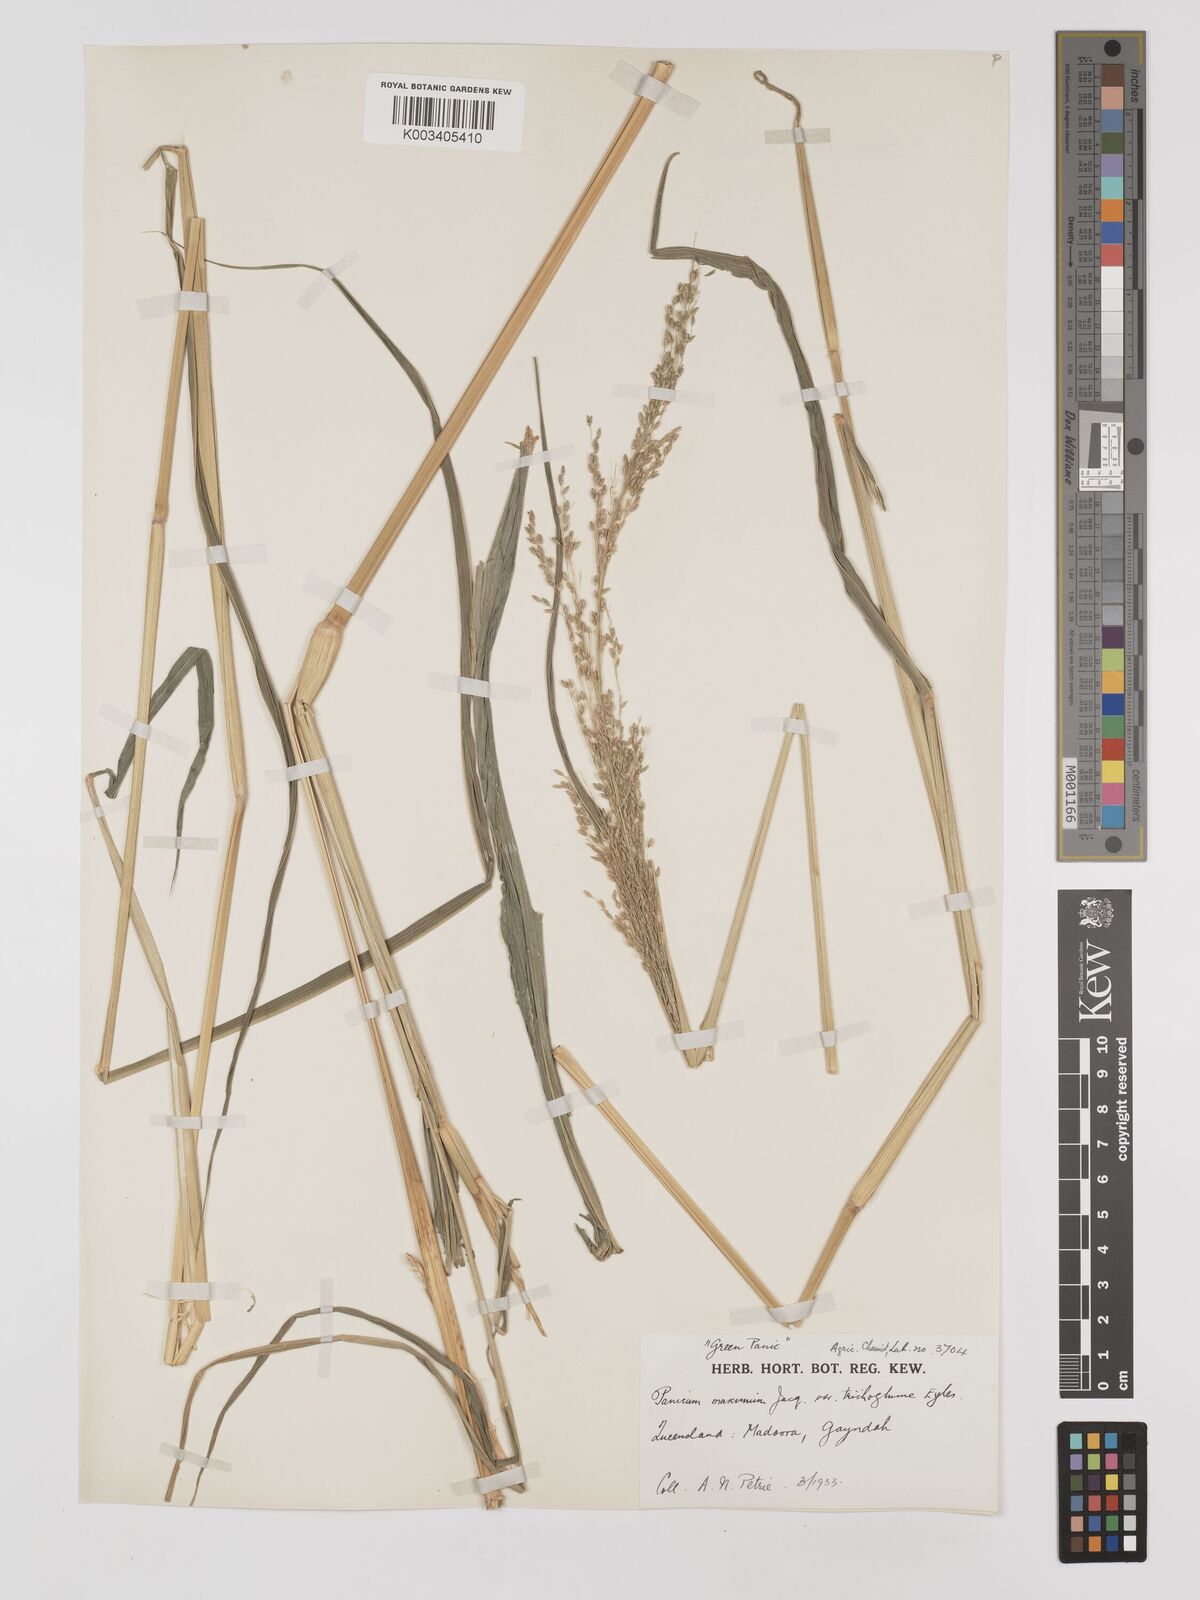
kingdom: Plantae
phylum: Tracheophyta
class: Liliopsida
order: Poales
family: Poaceae
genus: Megathyrsus
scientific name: Megathyrsus maximus
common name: Guineagrass
